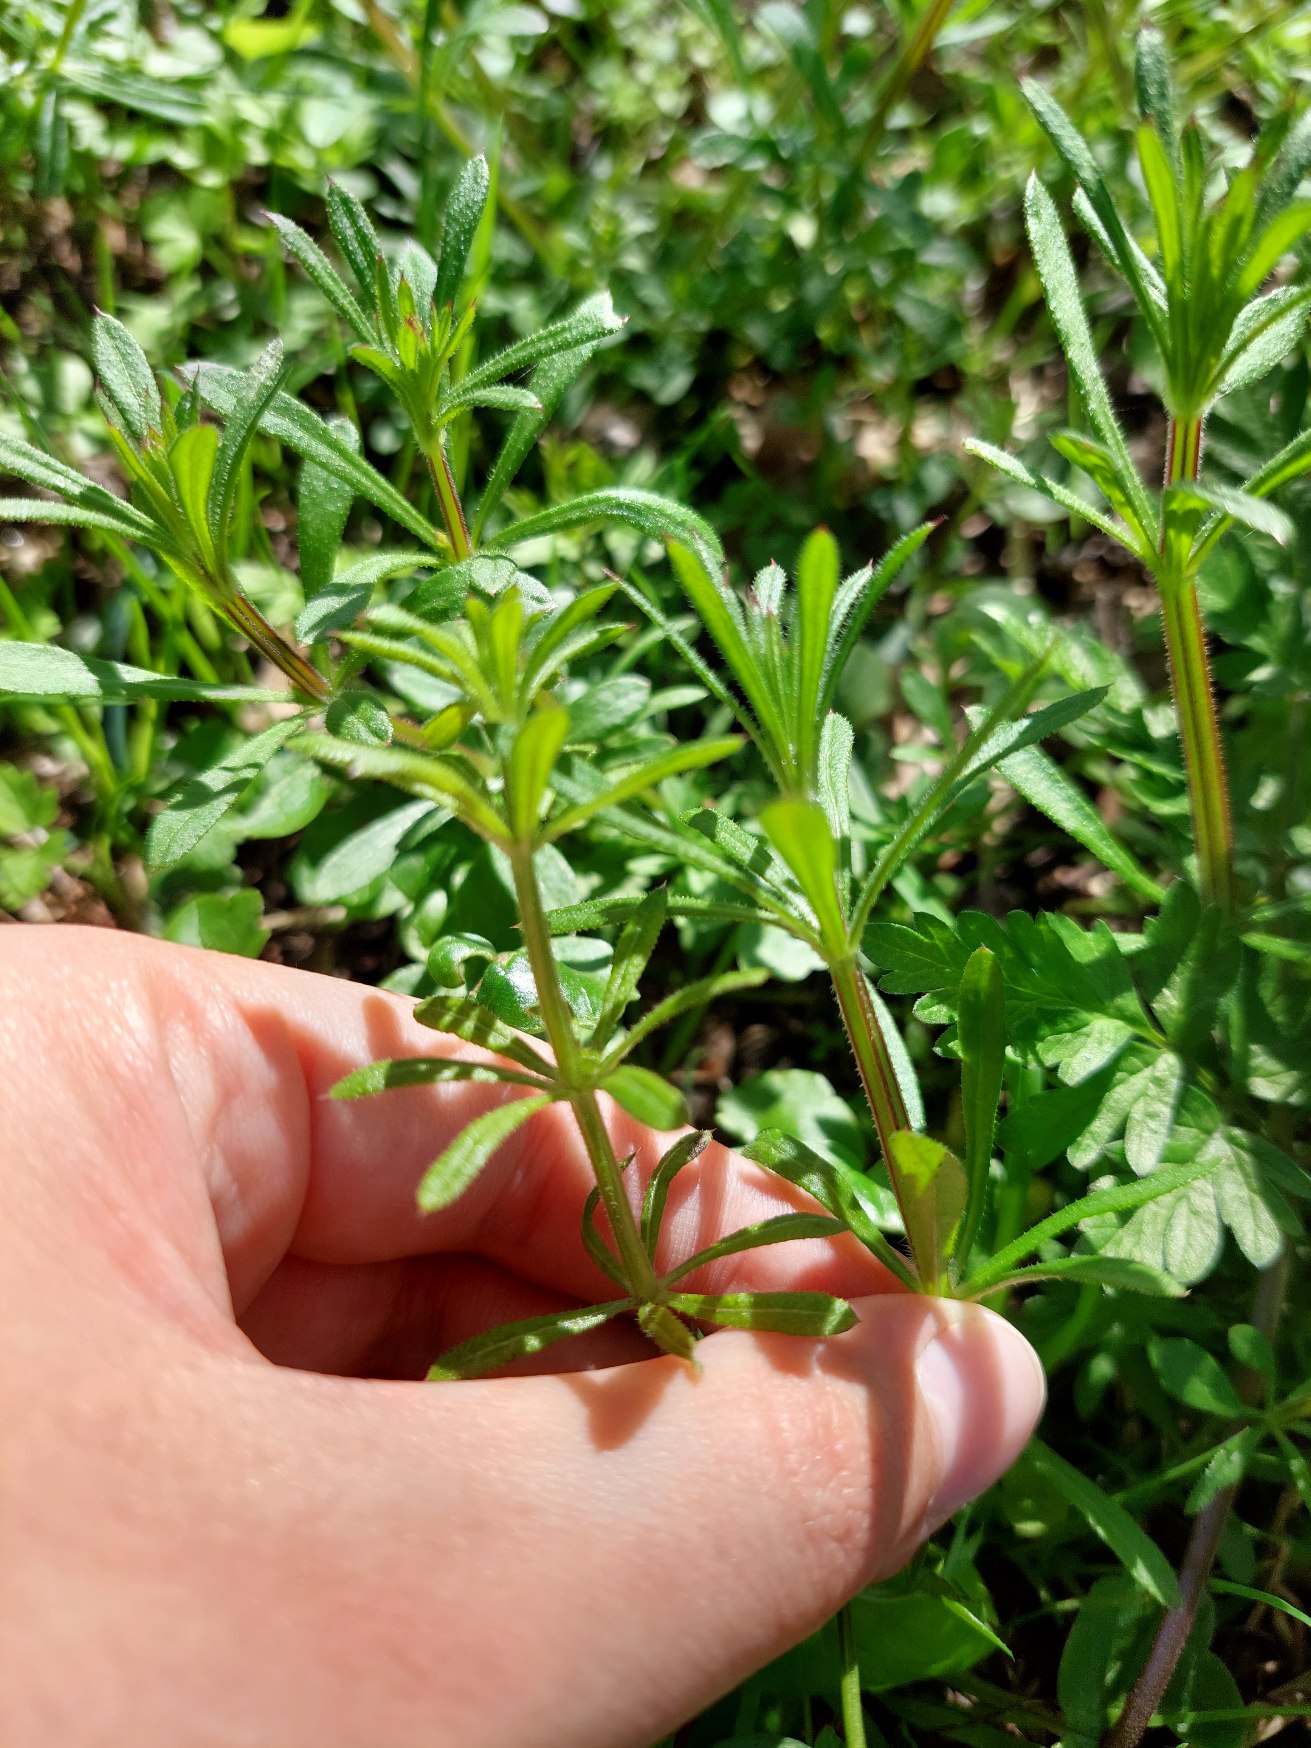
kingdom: Plantae
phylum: Tracheophyta
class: Magnoliopsida
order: Gentianales
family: Rubiaceae
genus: Galium
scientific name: Galium aparine
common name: Burre-snerre
